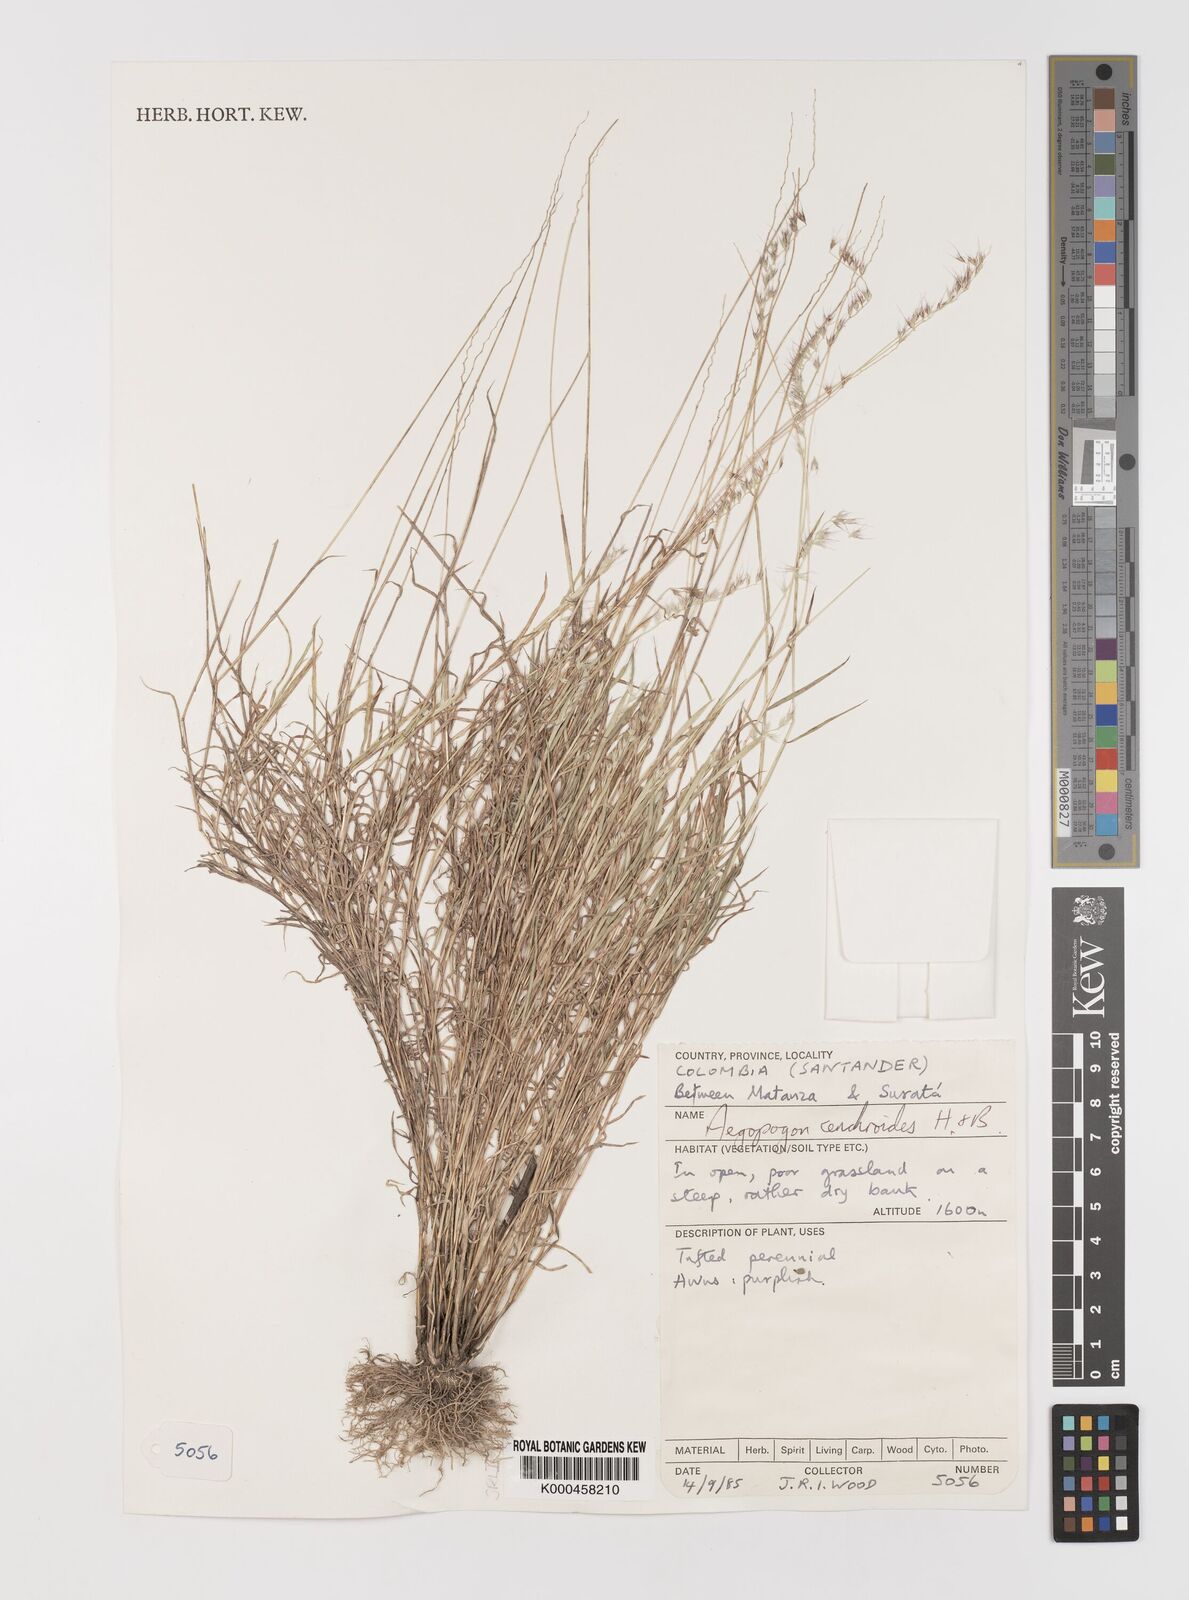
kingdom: Plantae
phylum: Tracheophyta
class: Liliopsida
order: Poales
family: Poaceae
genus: Muhlenbergia
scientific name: Muhlenbergia
